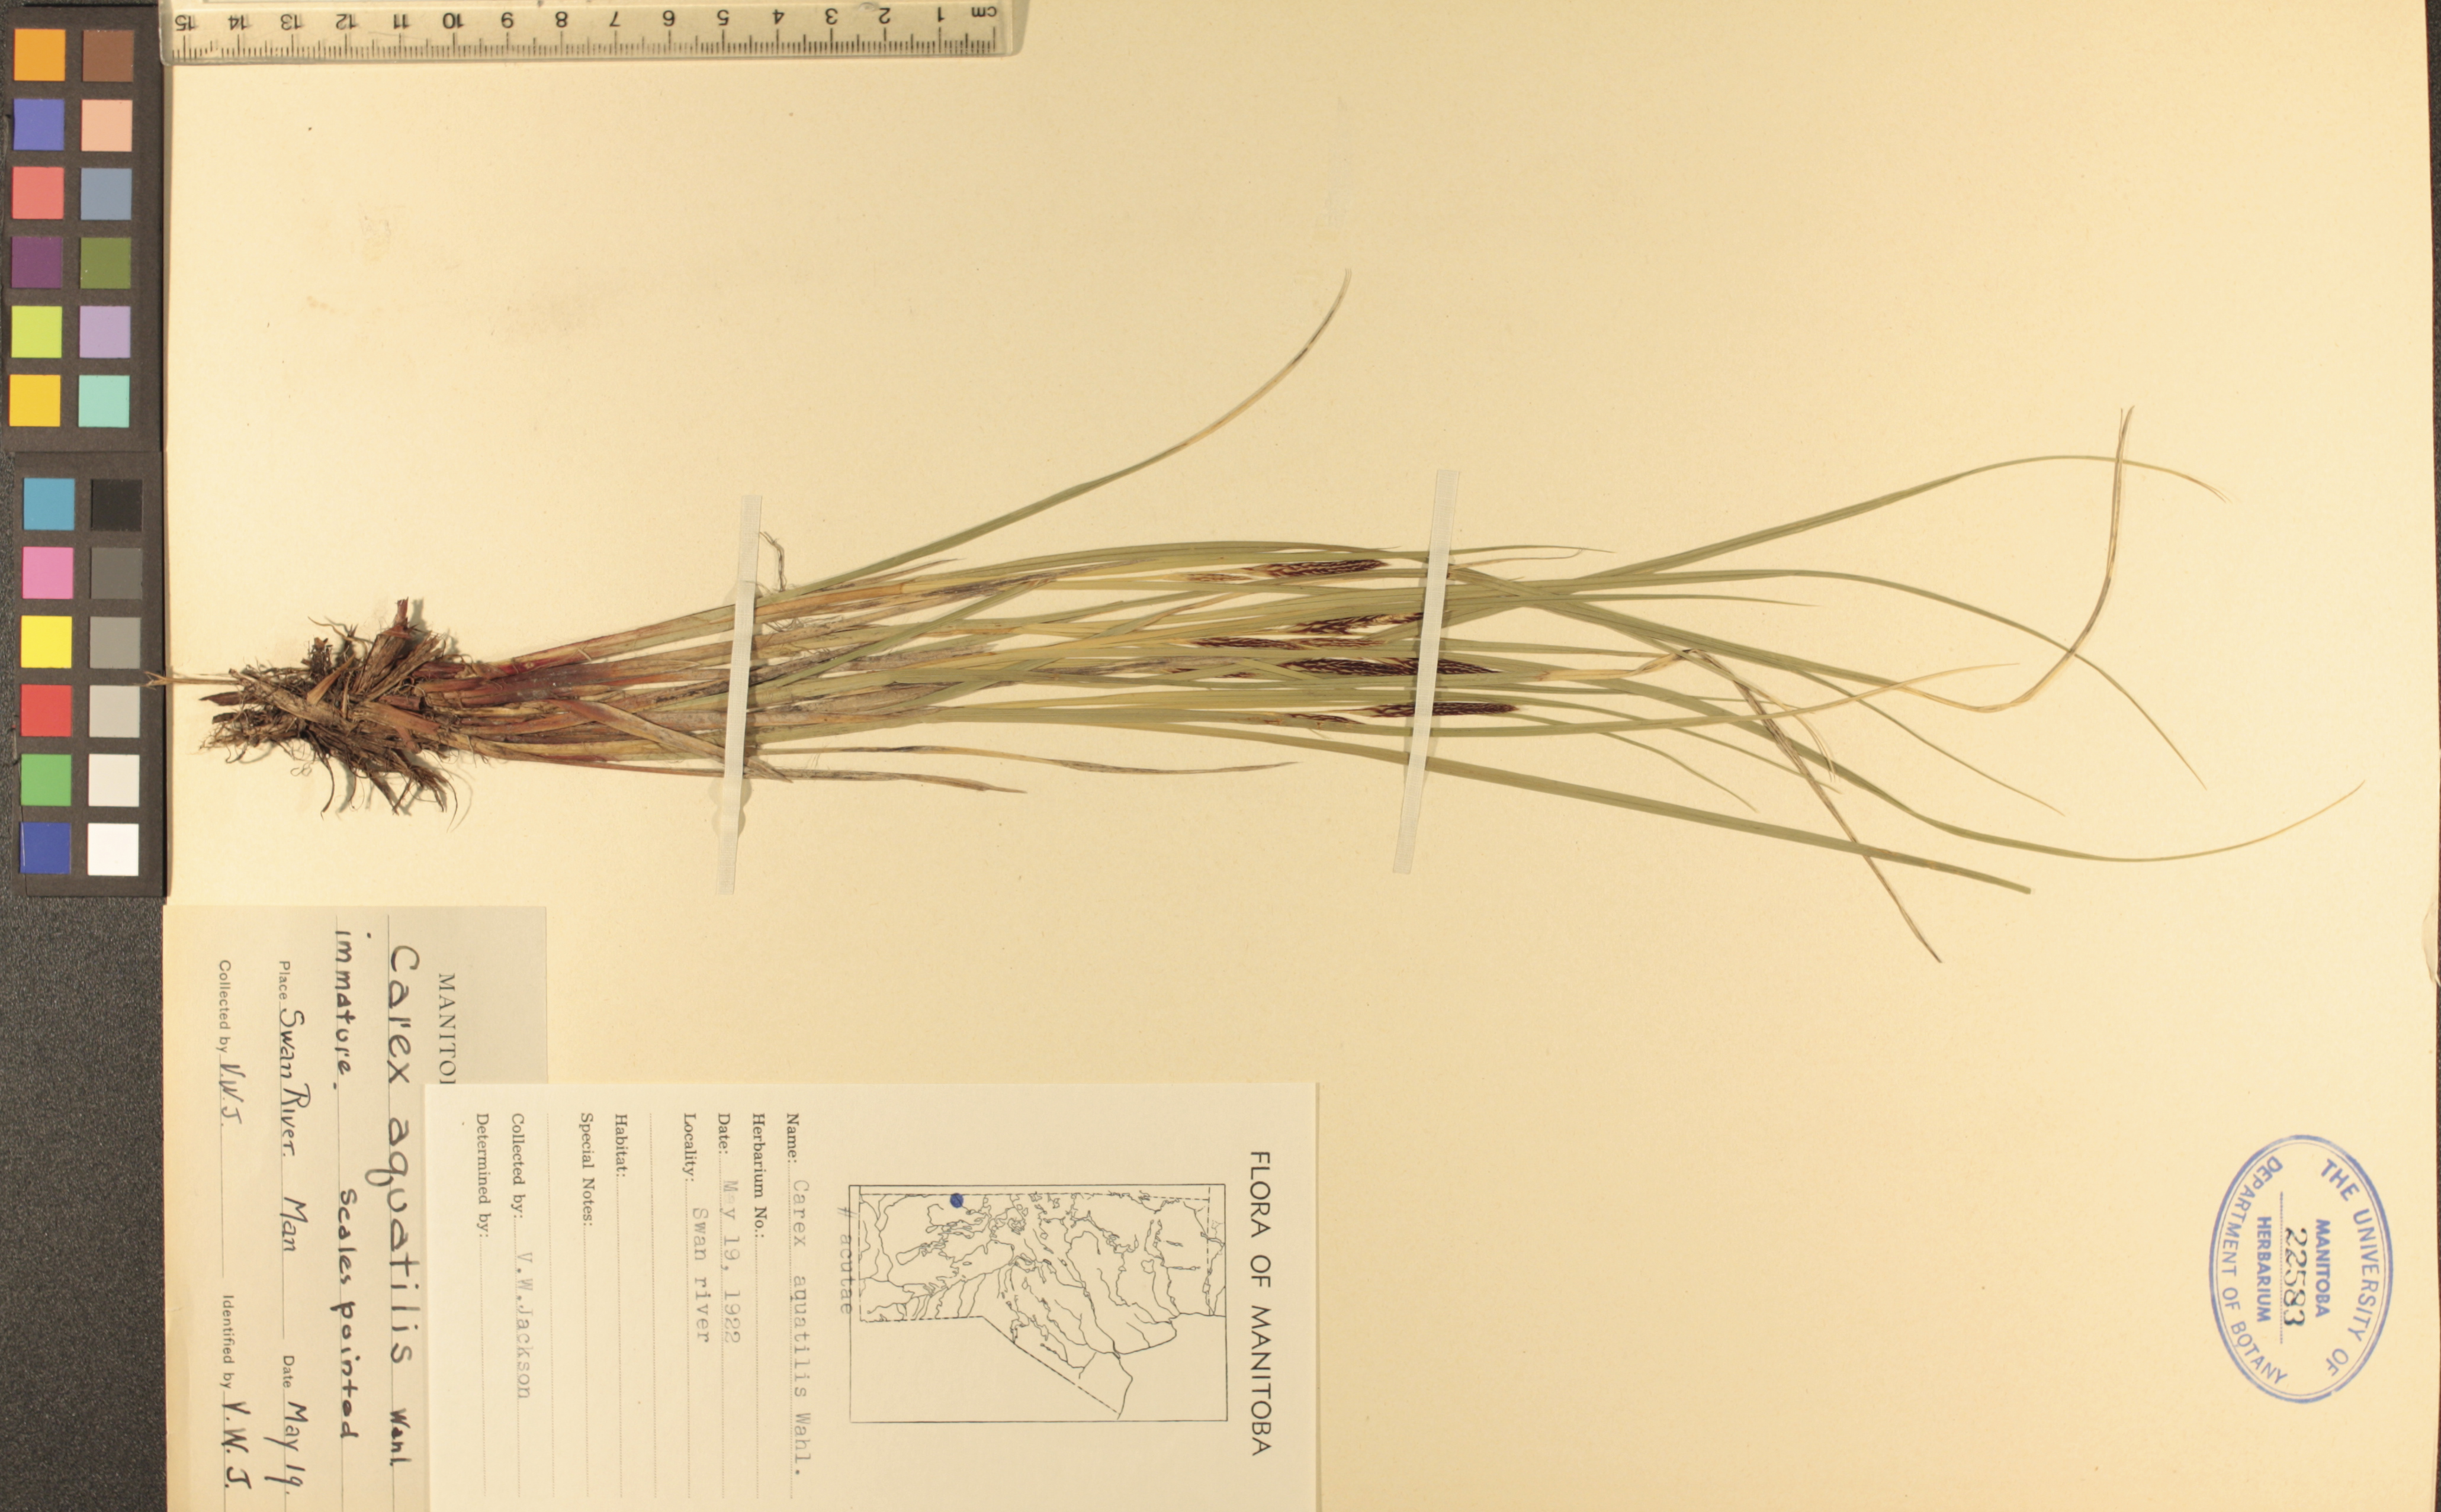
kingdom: Plantae
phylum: Tracheophyta
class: Liliopsida
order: Poales
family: Cyperaceae
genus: Carex
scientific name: Carex aquatilis
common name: Water sedge
